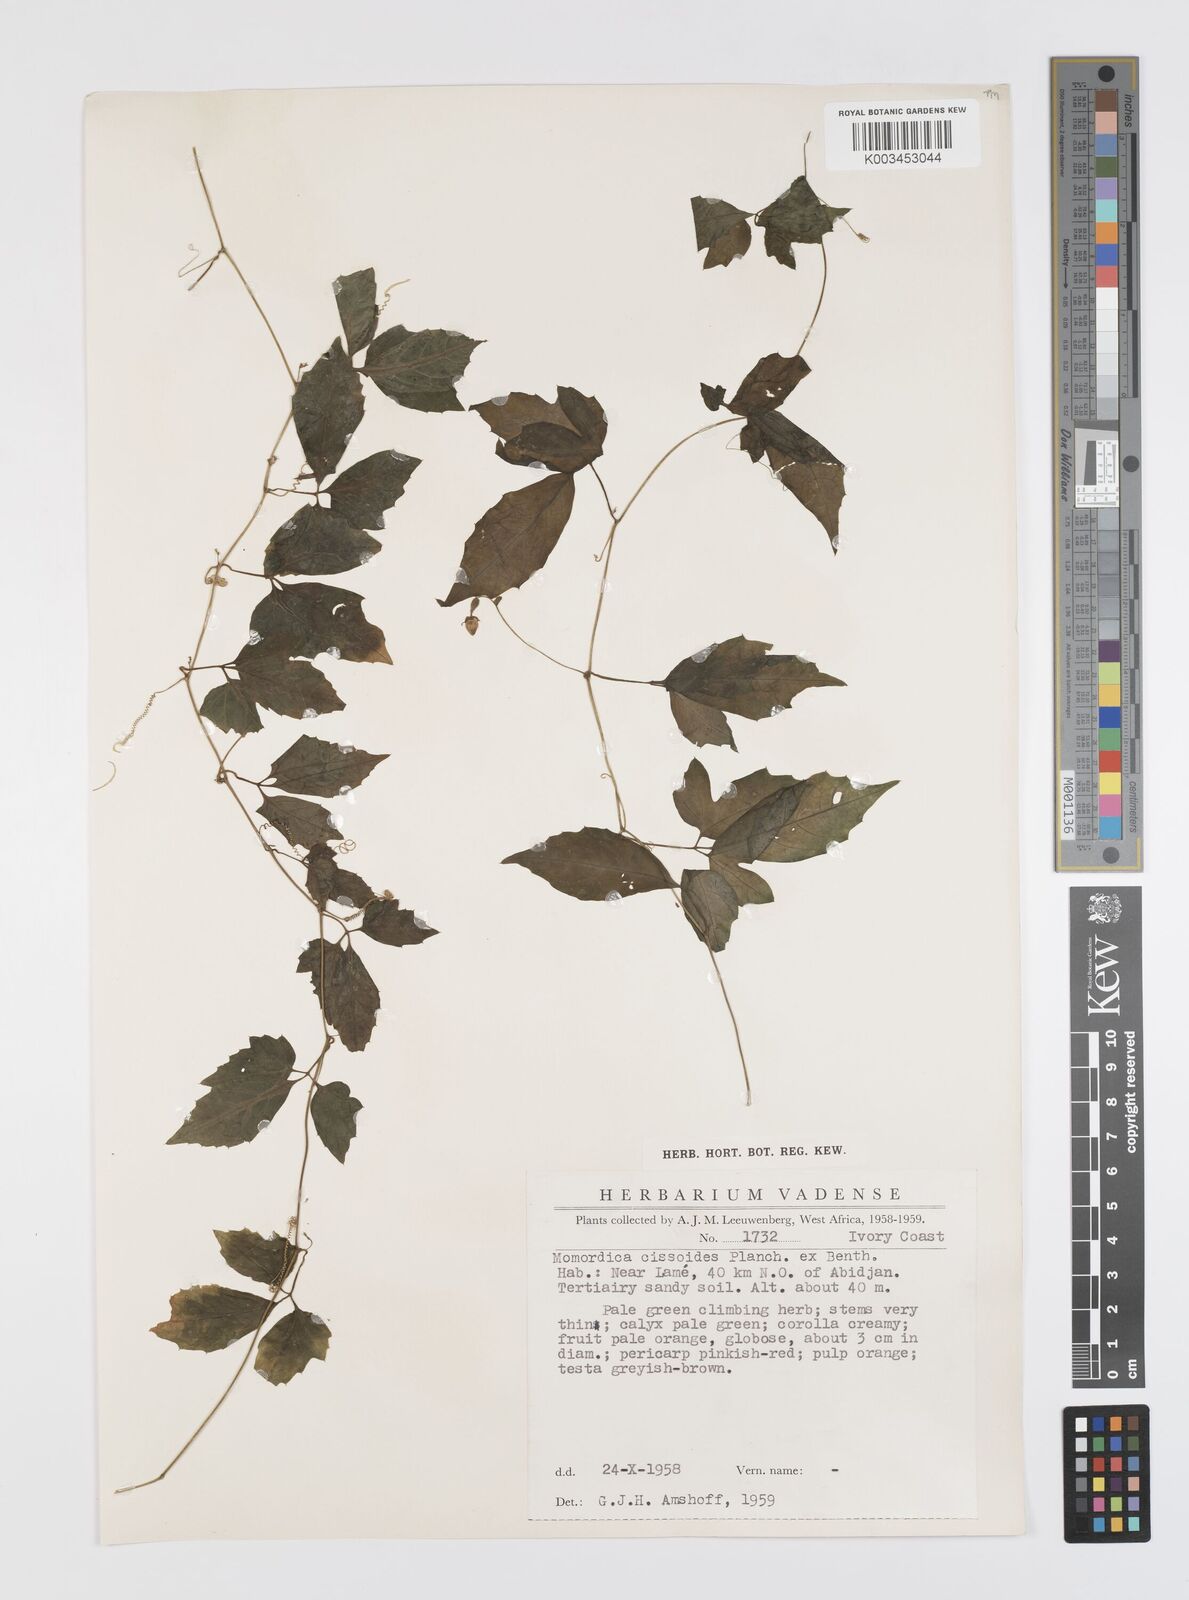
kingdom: Plantae
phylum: Tracheophyta
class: Magnoliopsida
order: Cucurbitales
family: Cucurbitaceae
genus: Momordica
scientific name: Momordica cissoides
